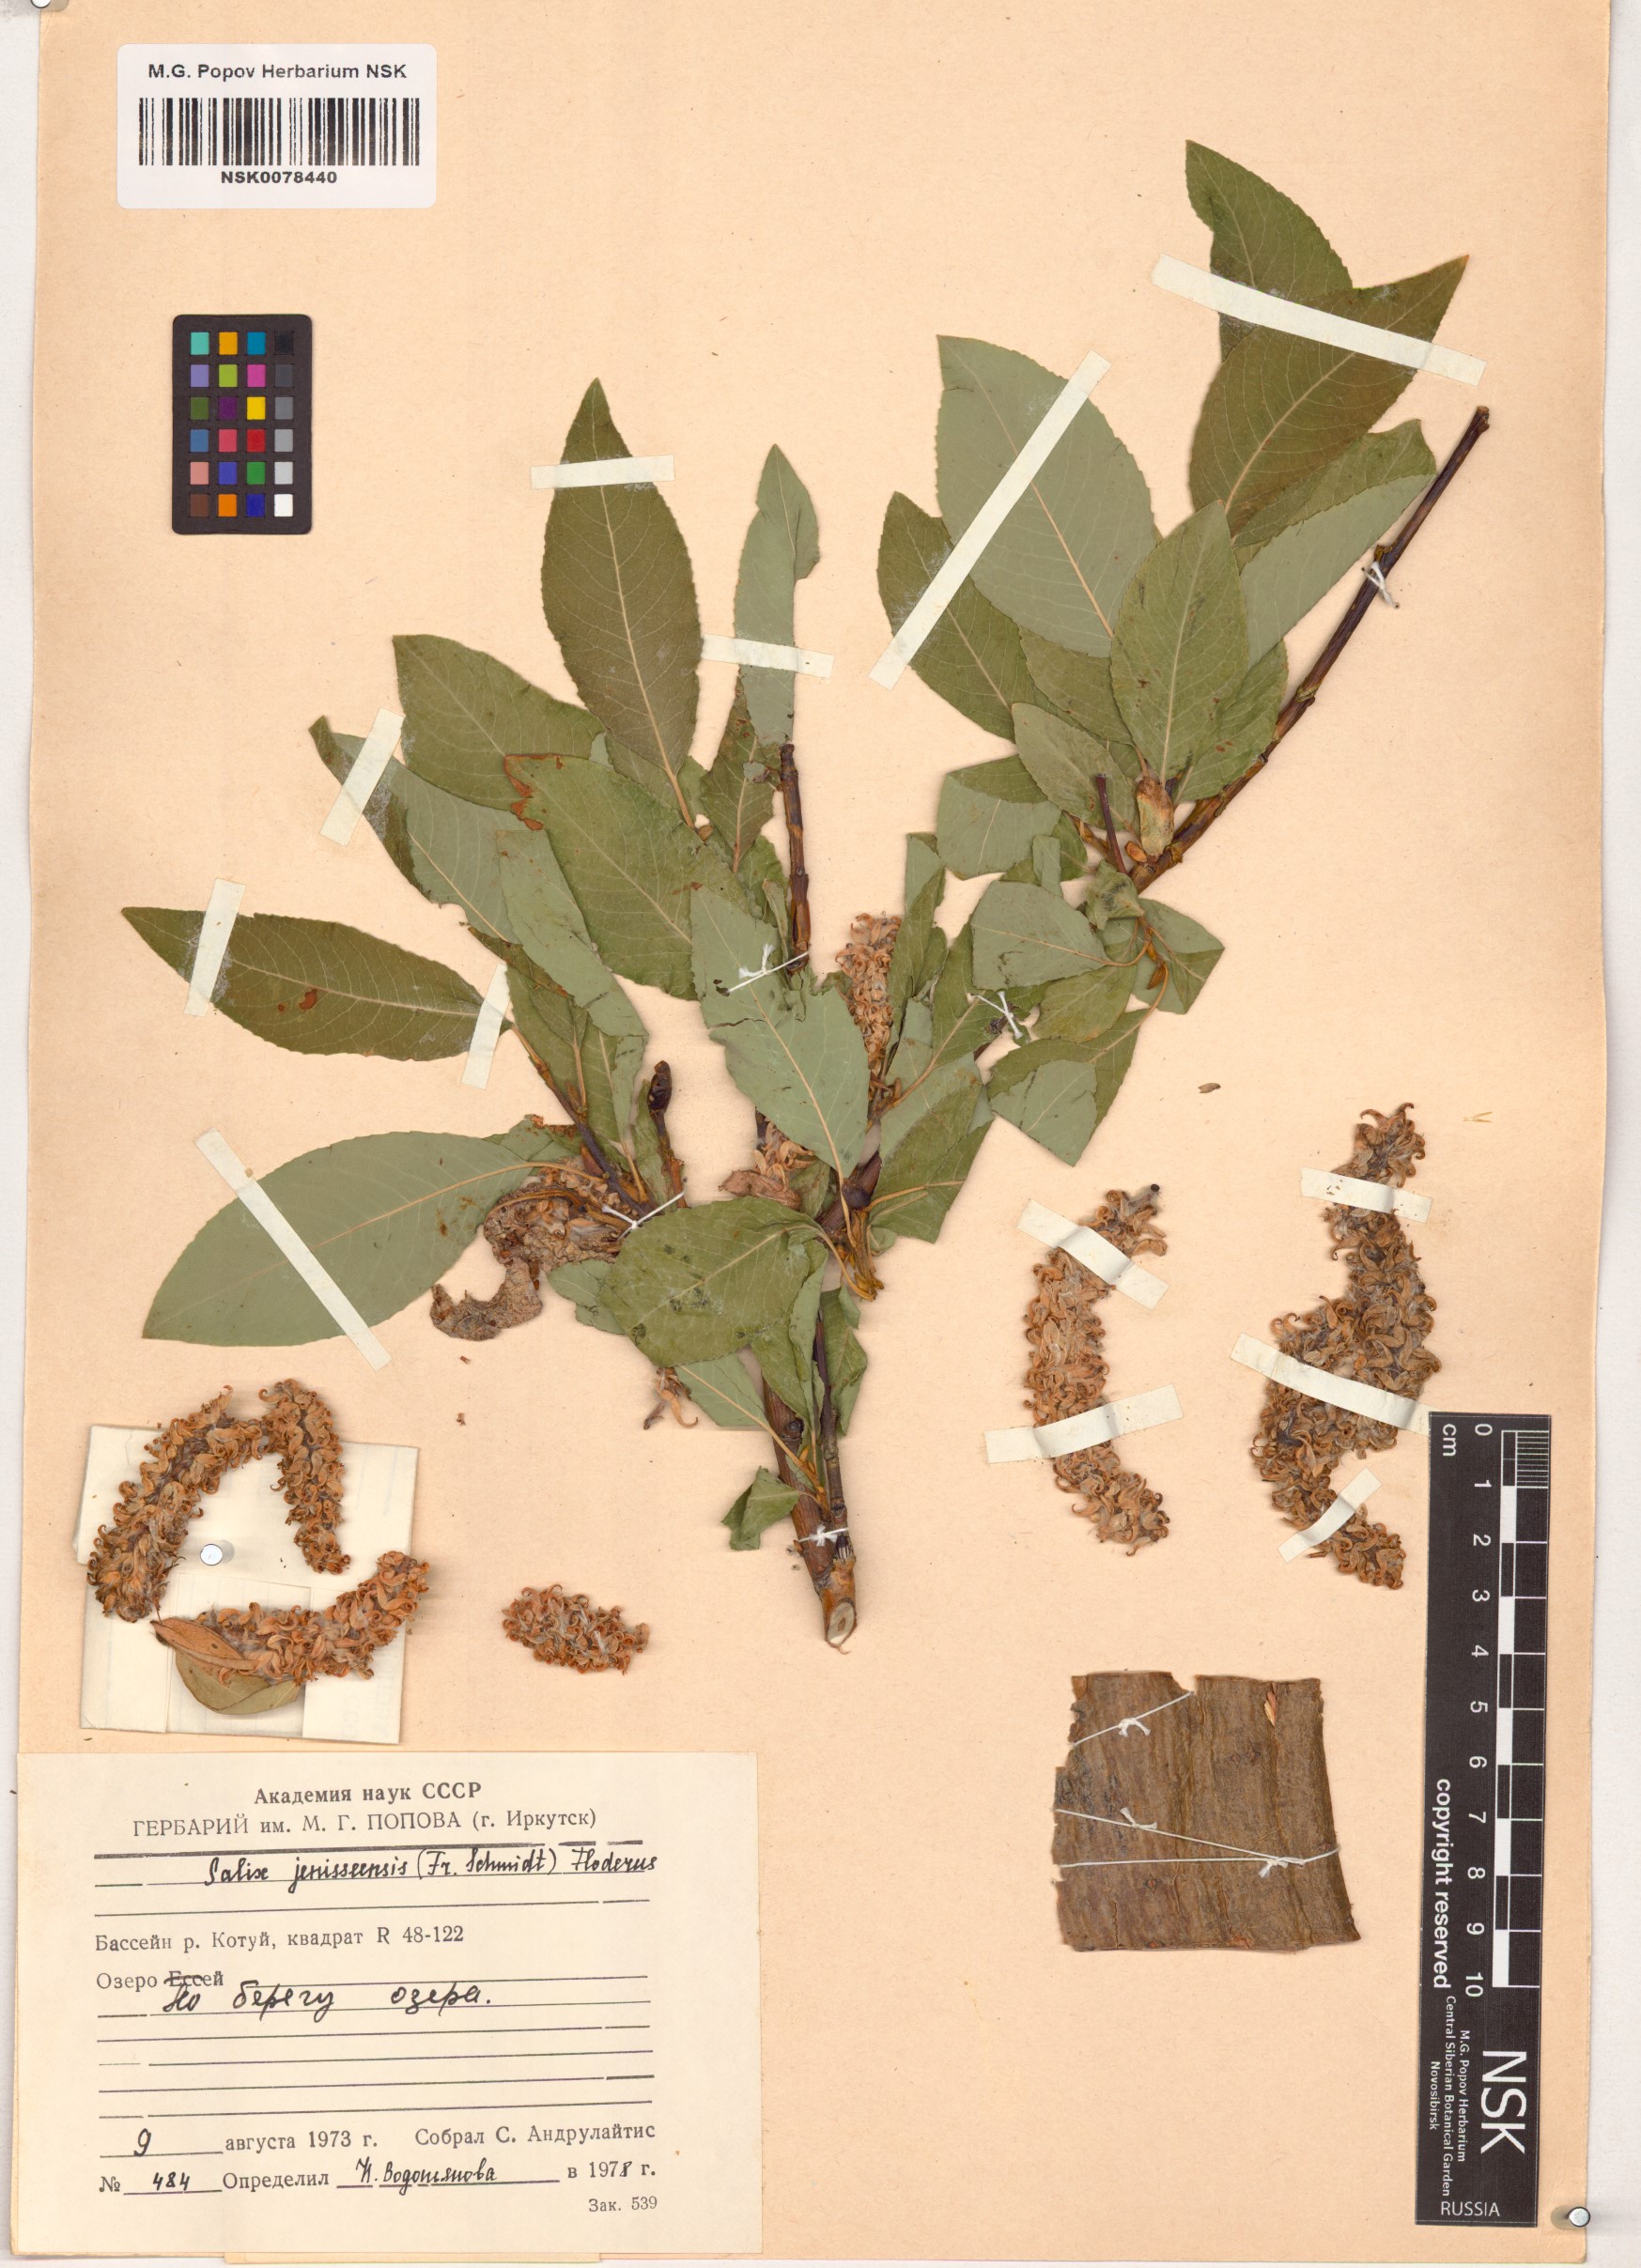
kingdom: Plantae
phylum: Tracheophyta
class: Magnoliopsida
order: Malpighiales
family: Salicaceae
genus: Salix
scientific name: Salix jenisseensis
